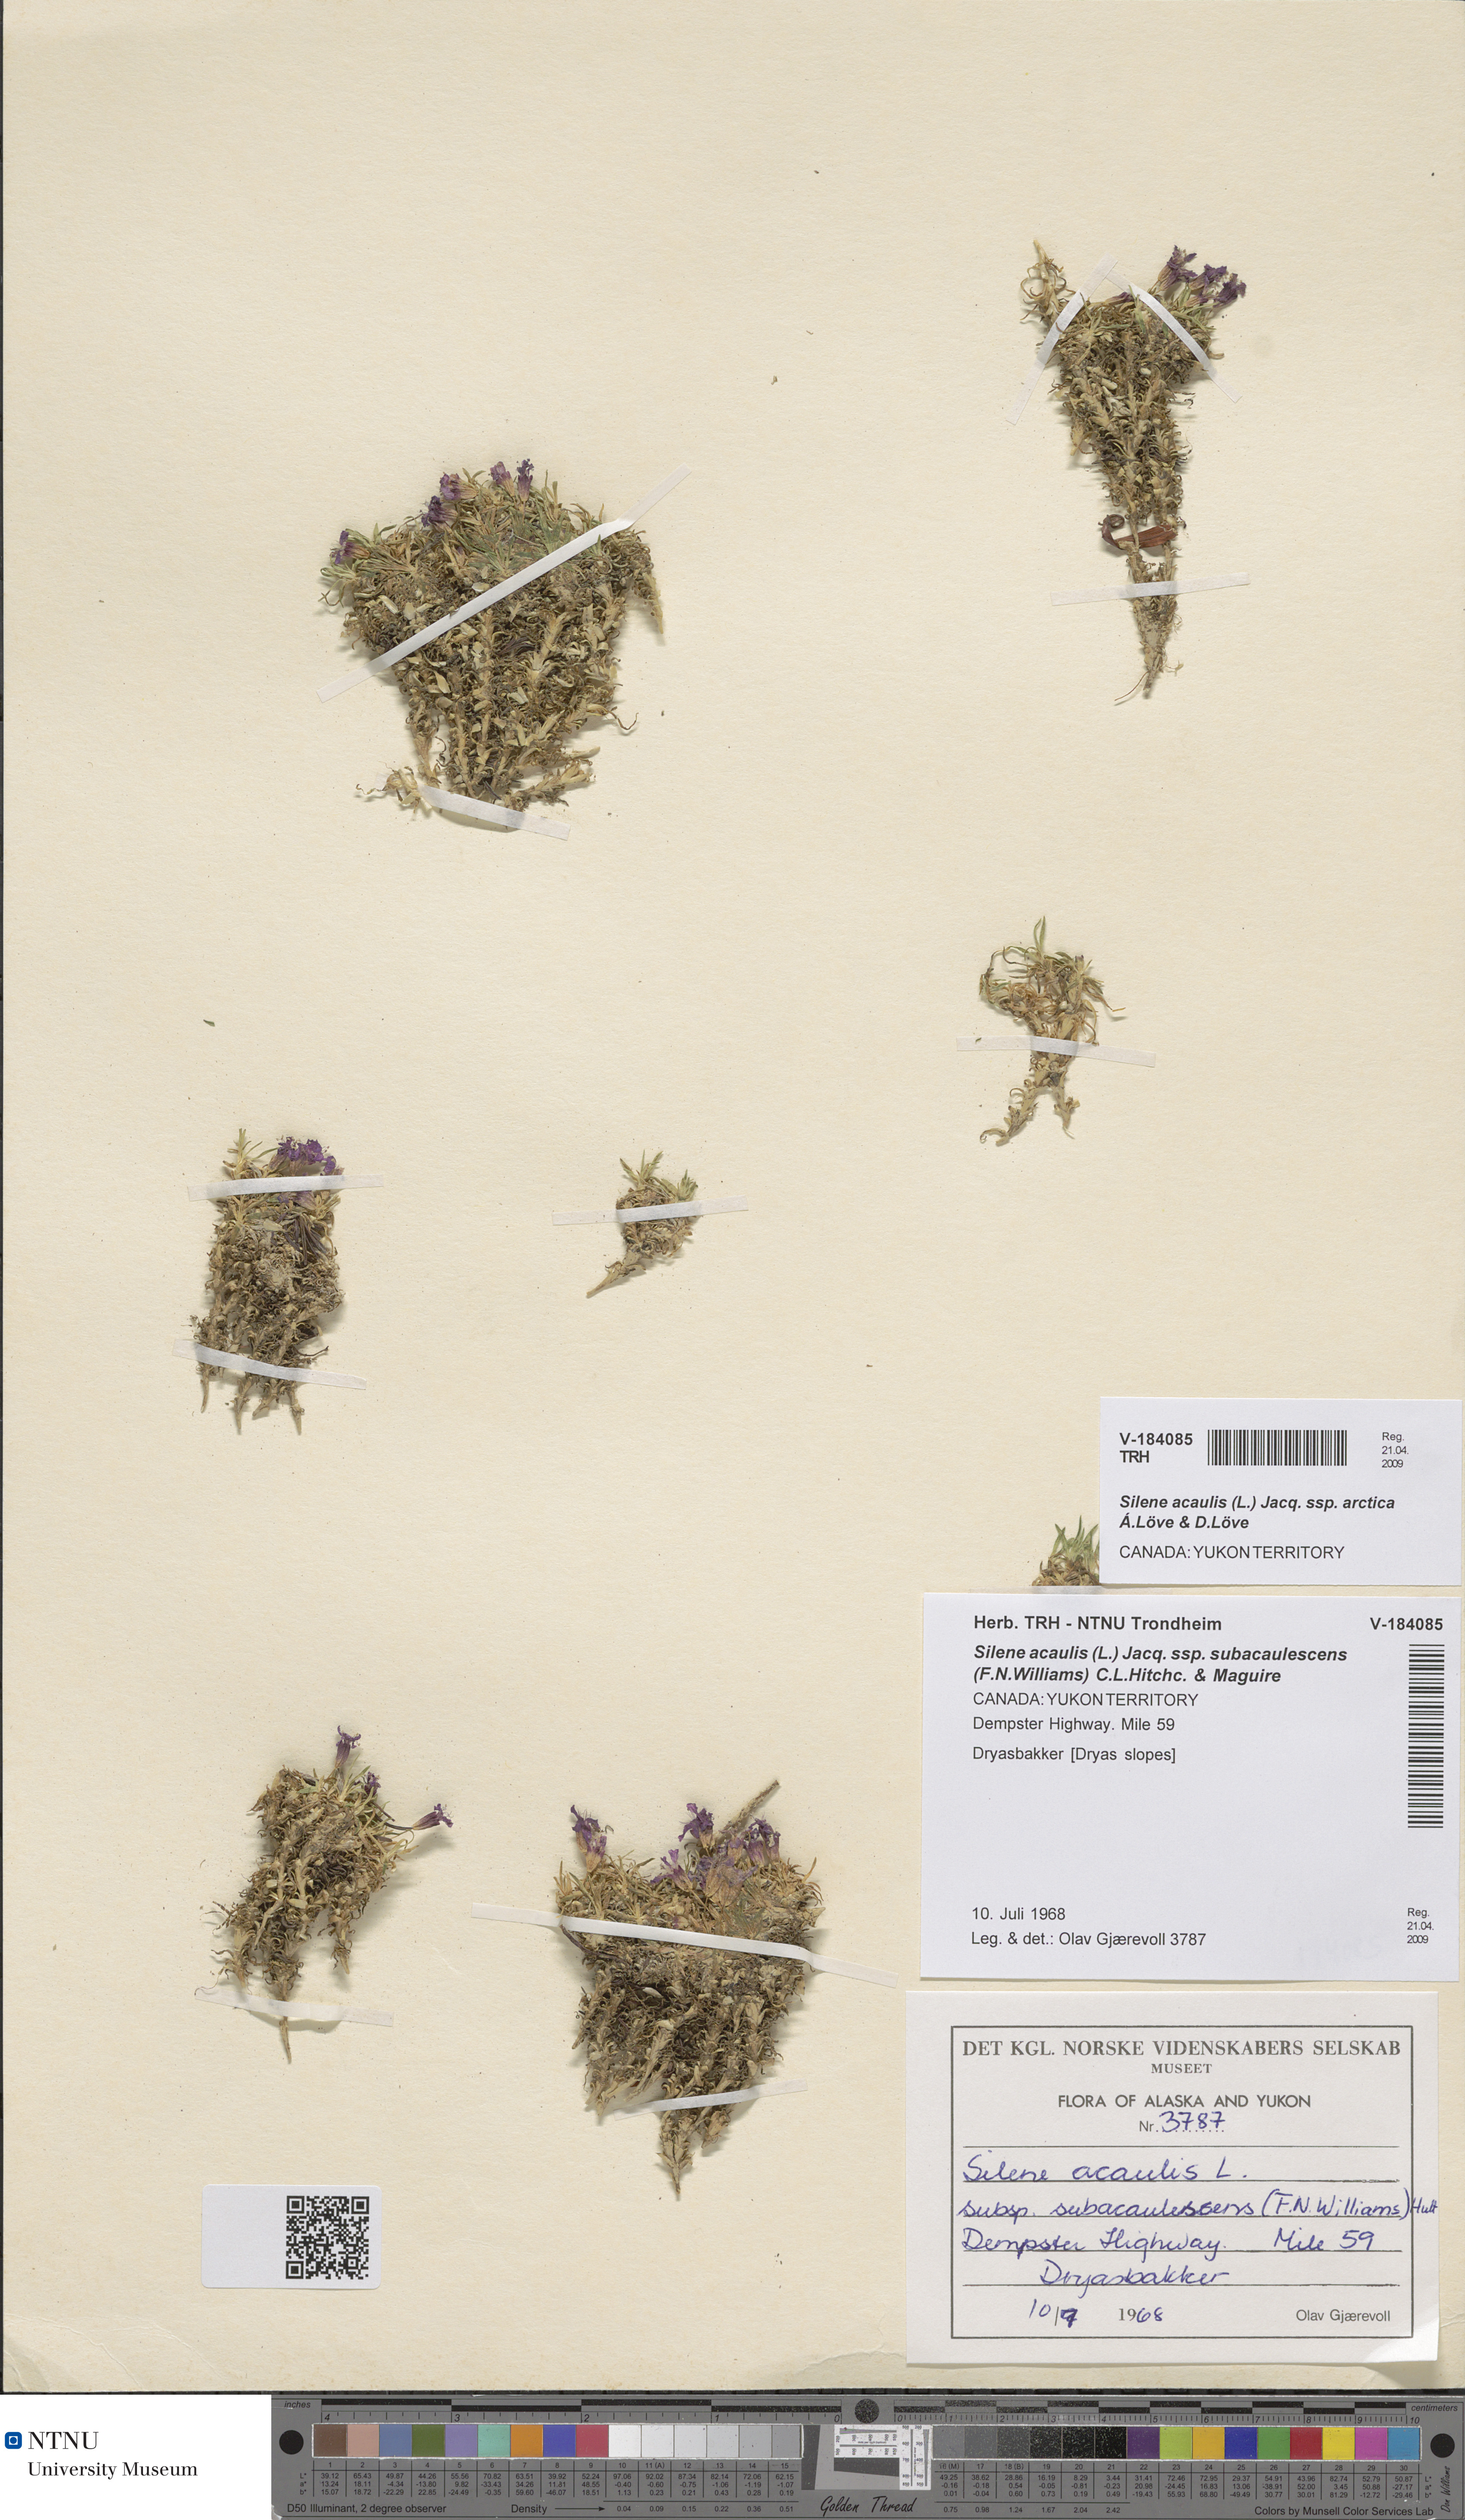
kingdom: Plantae
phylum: Tracheophyta
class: Magnoliopsida
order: Caryophyllales
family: Caryophyllaceae
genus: Silene
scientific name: Silene acaulis
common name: Moss campion
